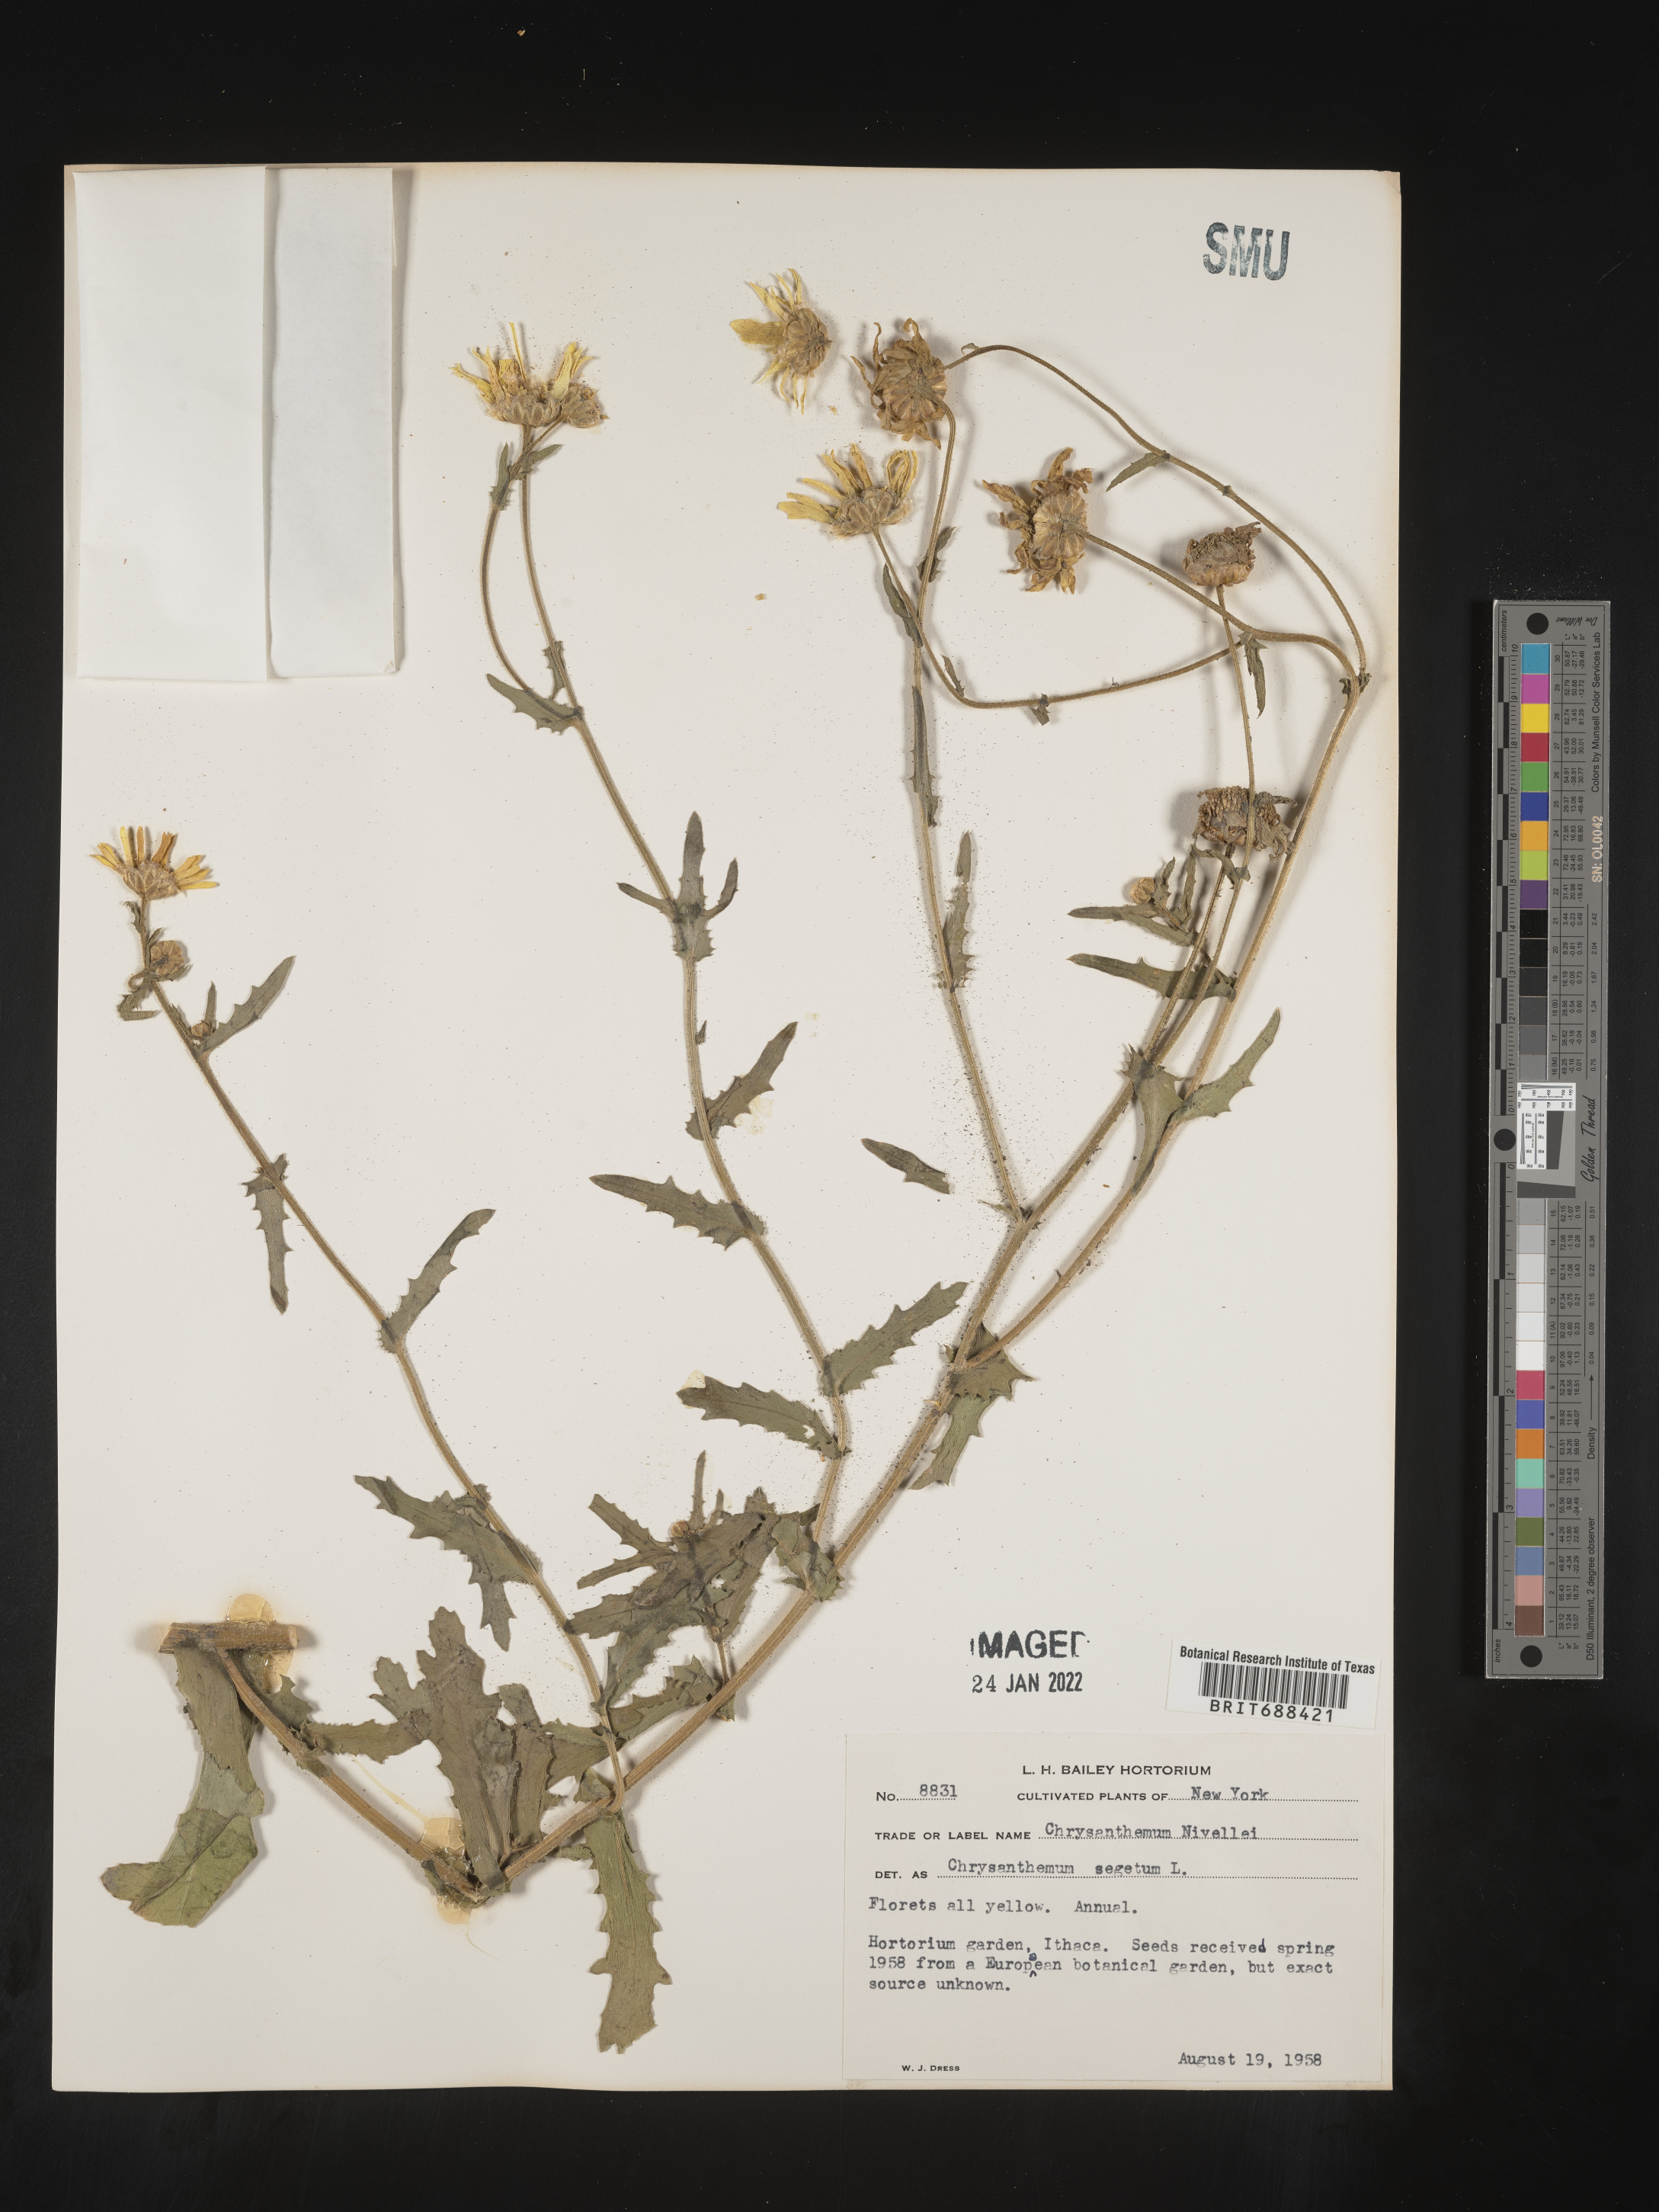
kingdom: Plantae
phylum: Tracheophyta
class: Magnoliopsida
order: Asterales
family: Asteraceae
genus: Chrysanthemum
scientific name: Chrysanthemum
